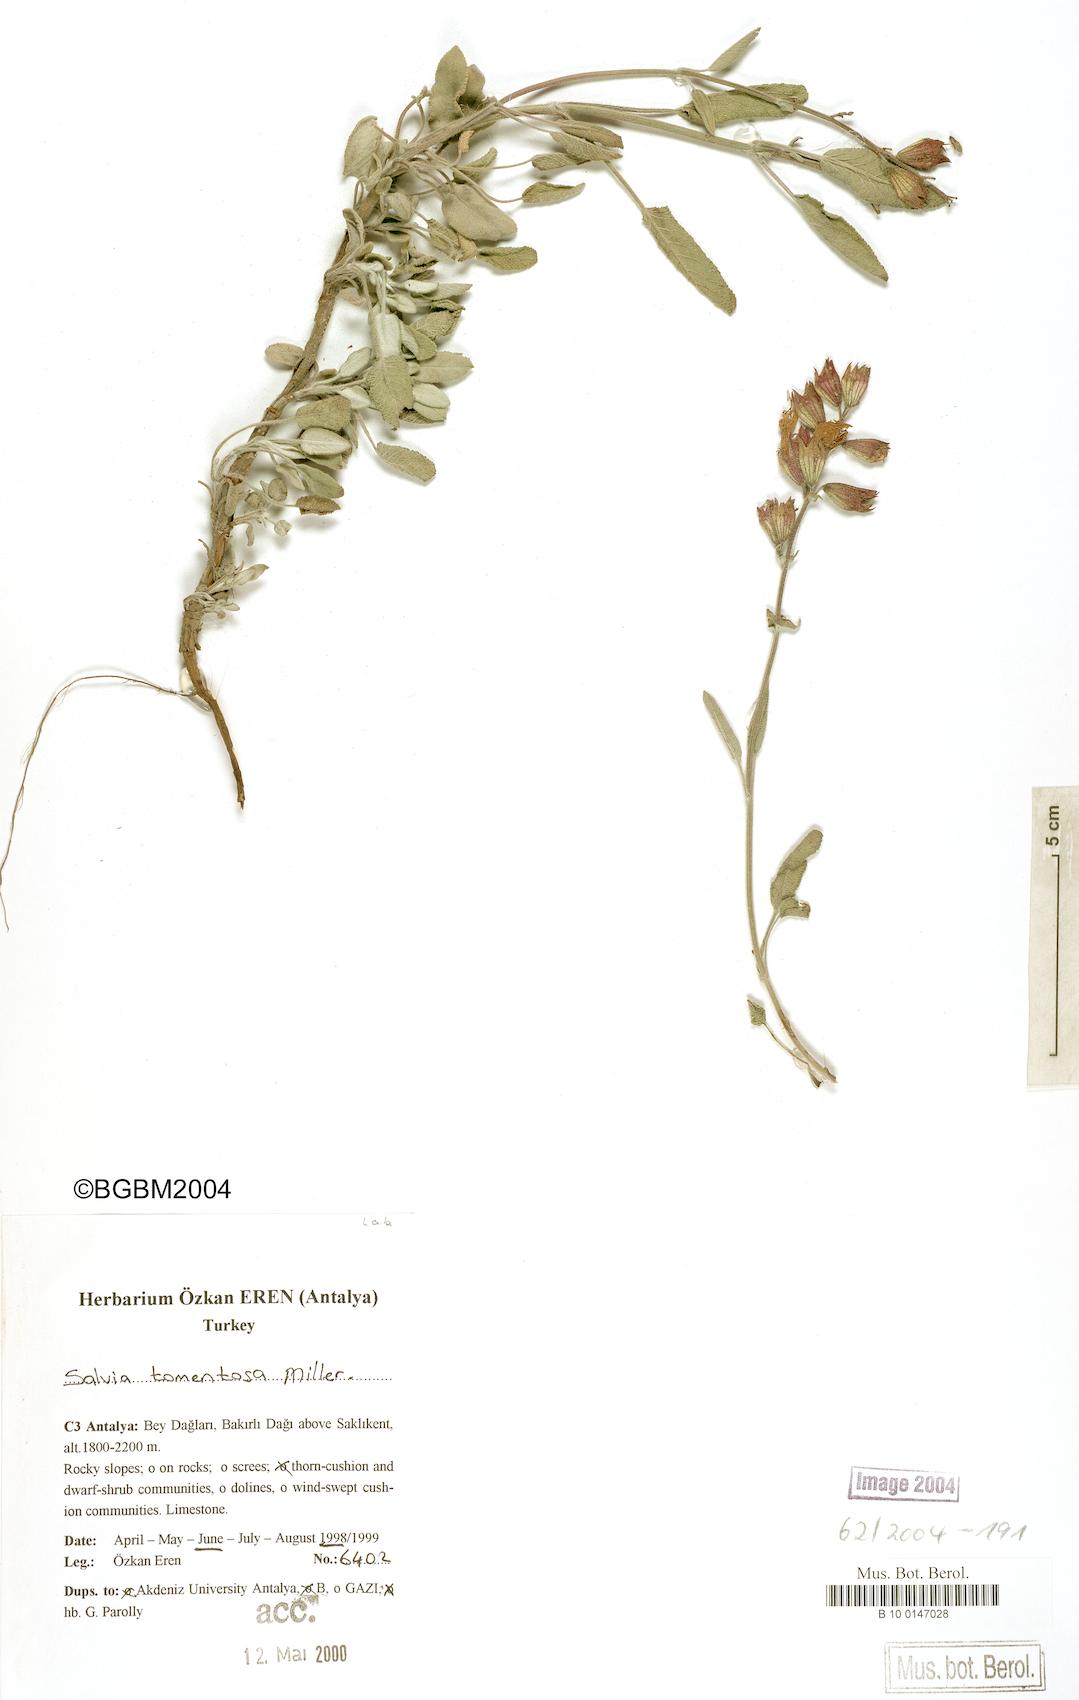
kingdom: Plantae
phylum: Tracheophyta
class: Magnoliopsida
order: Lamiales
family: Lamiaceae
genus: Salvia
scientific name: Salvia tomentosa
